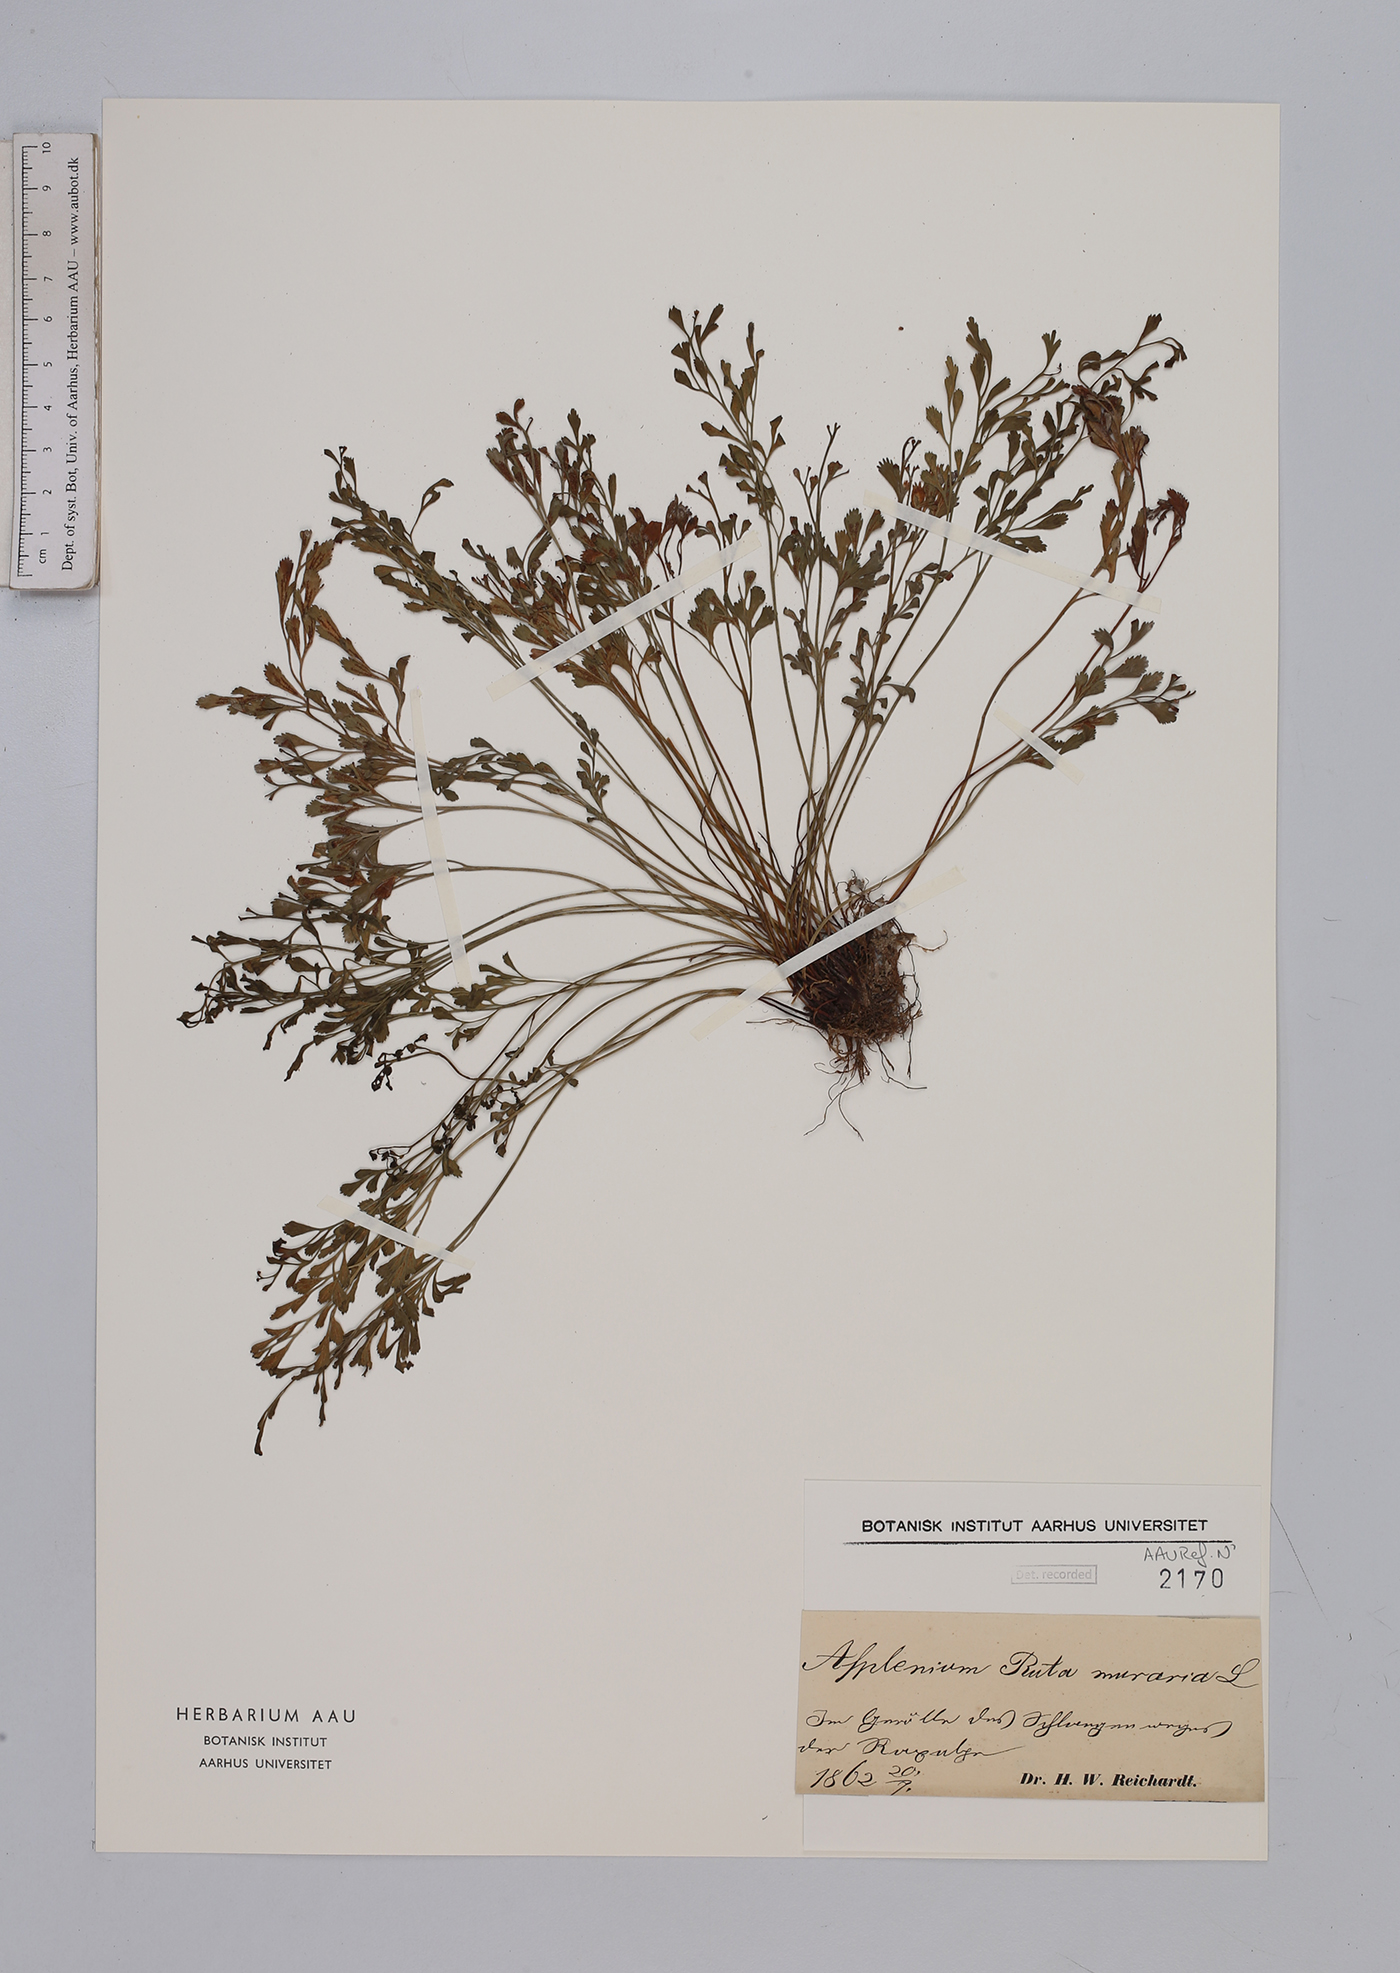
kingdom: Plantae
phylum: Tracheophyta
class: Polypodiopsida
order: Polypodiales
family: Aspleniaceae
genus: Asplenium
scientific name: Asplenium ruta-muraria
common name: Wall-rue
